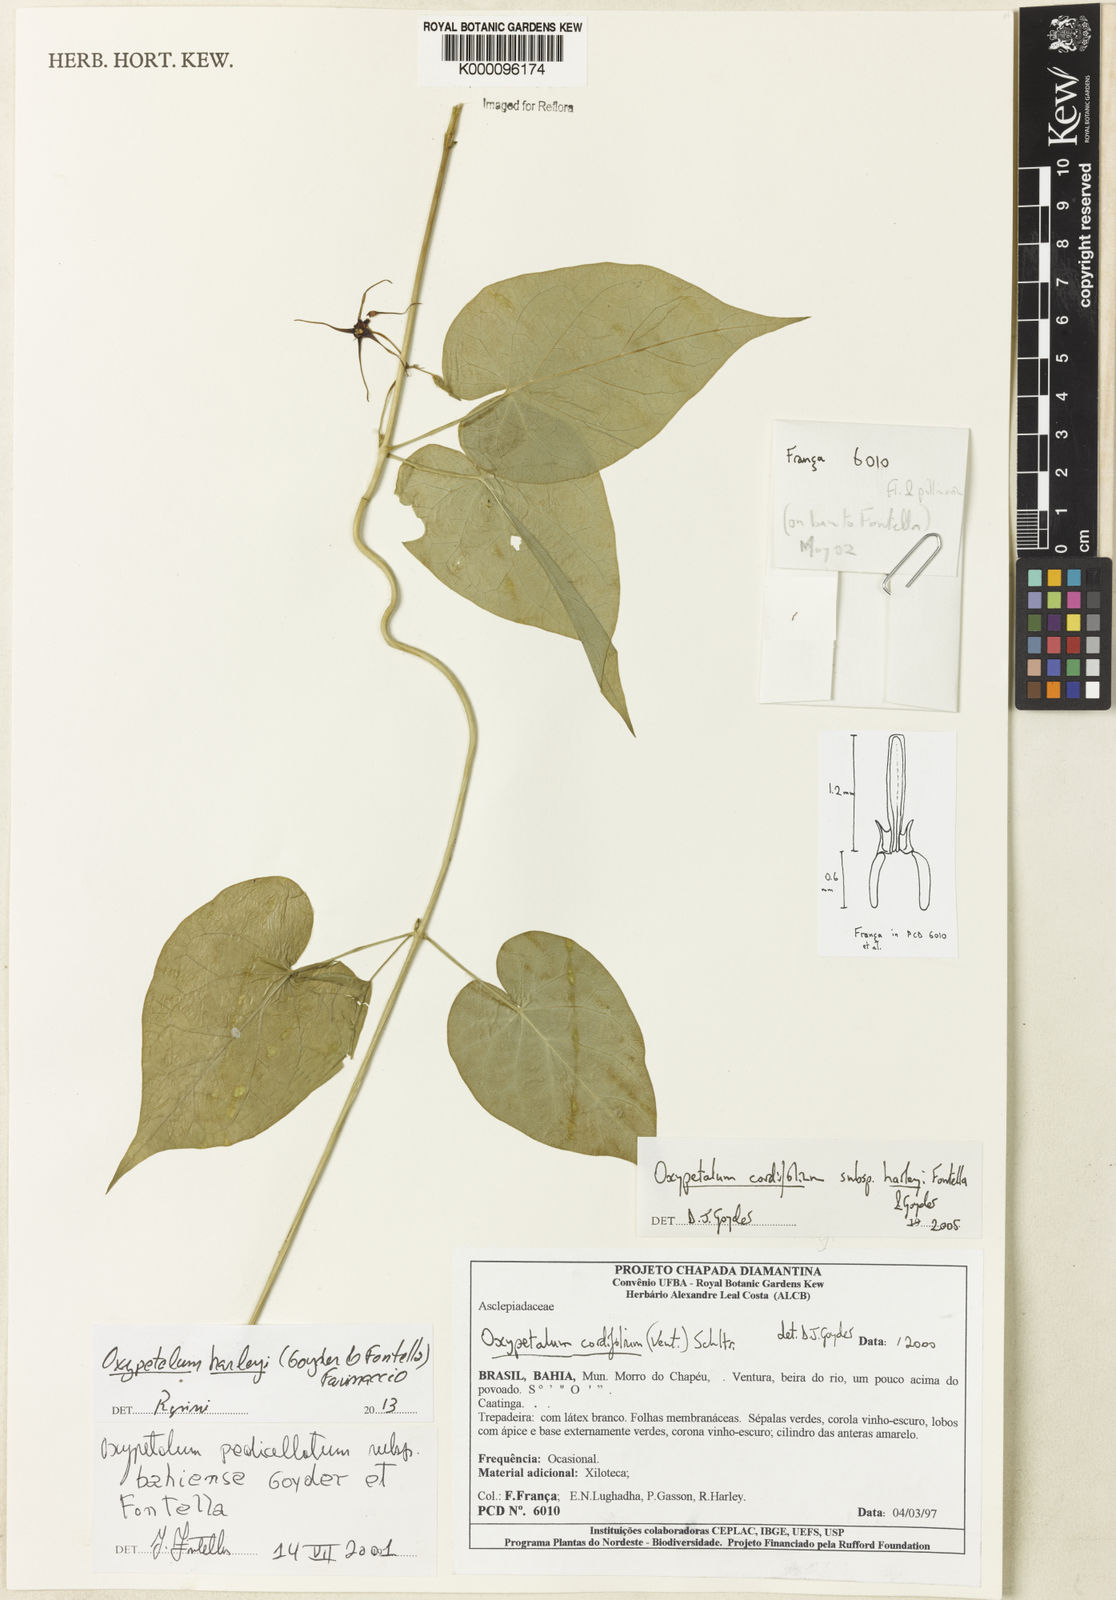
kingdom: Plantae
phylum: Tracheophyta
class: Magnoliopsida
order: Gentianales
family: Apocynaceae
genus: Oxypetalum
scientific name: Oxypetalum harleyi
